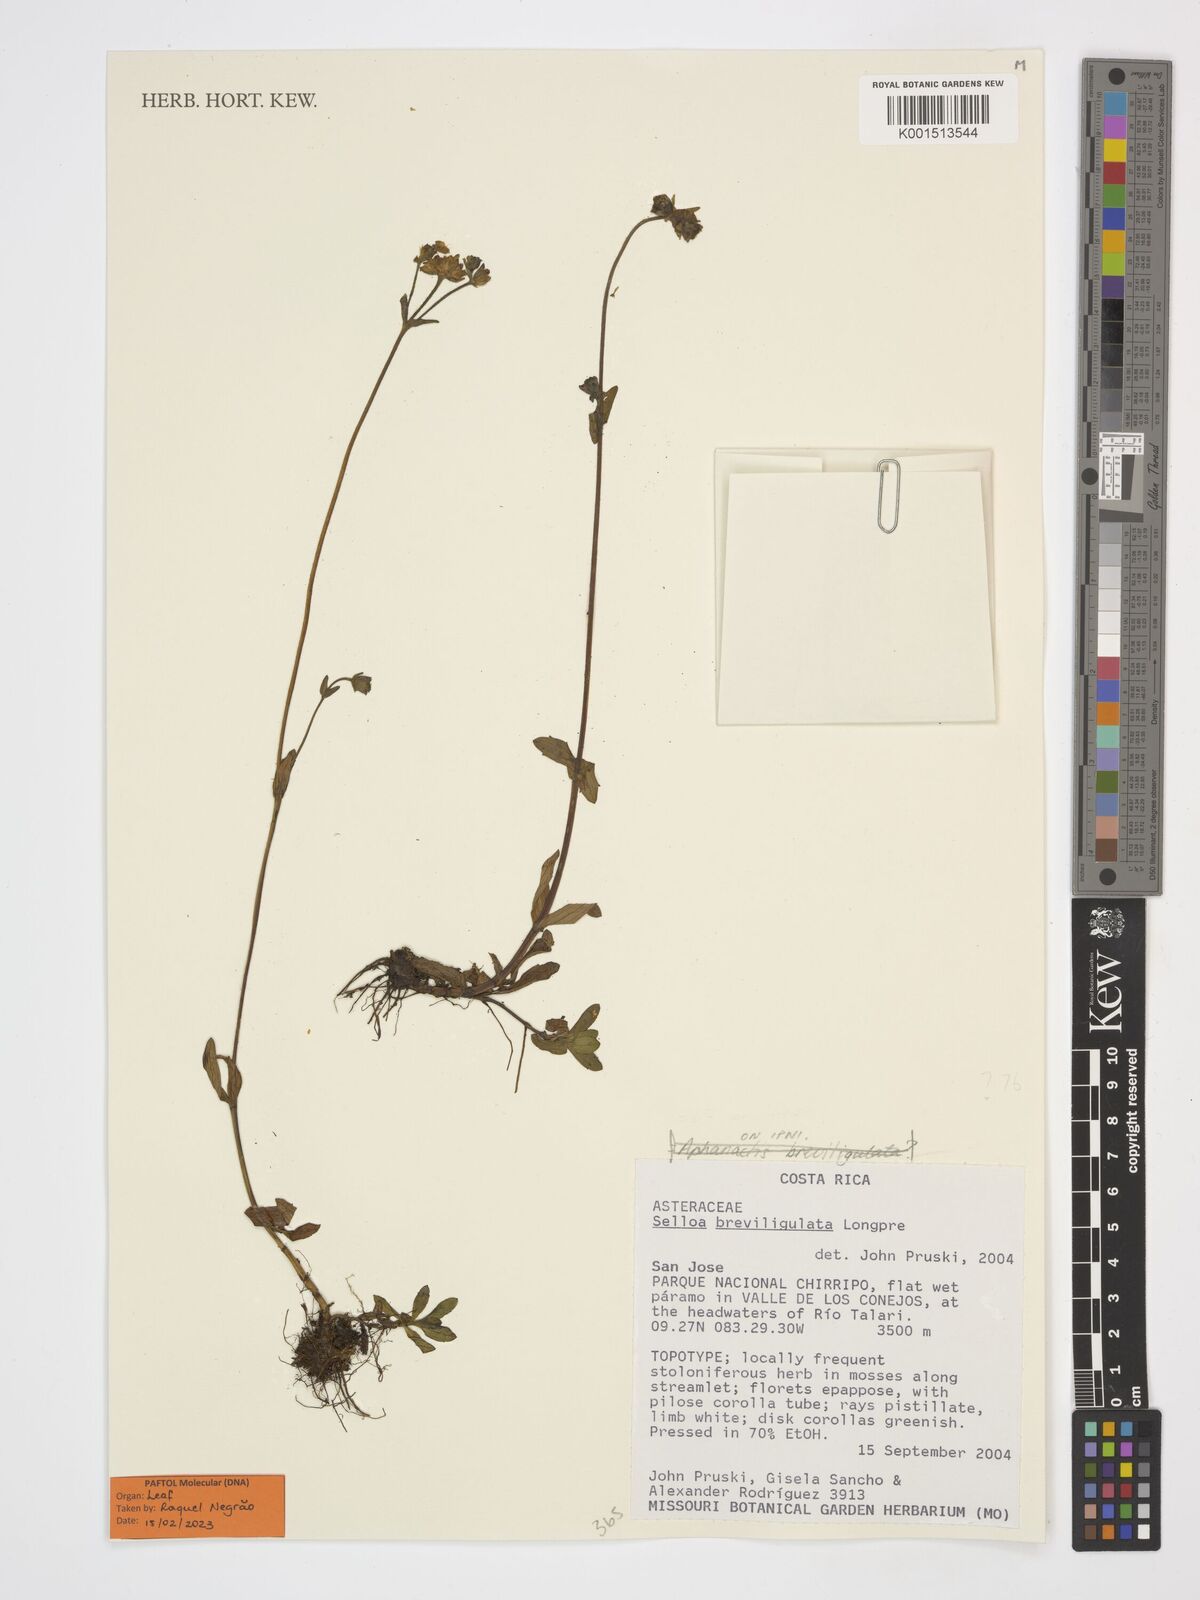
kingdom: Plantae
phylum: Tracheophyta
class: Magnoliopsida
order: Asterales
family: Asteraceae
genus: Aphanactis
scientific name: Aphanactis breviligulata
